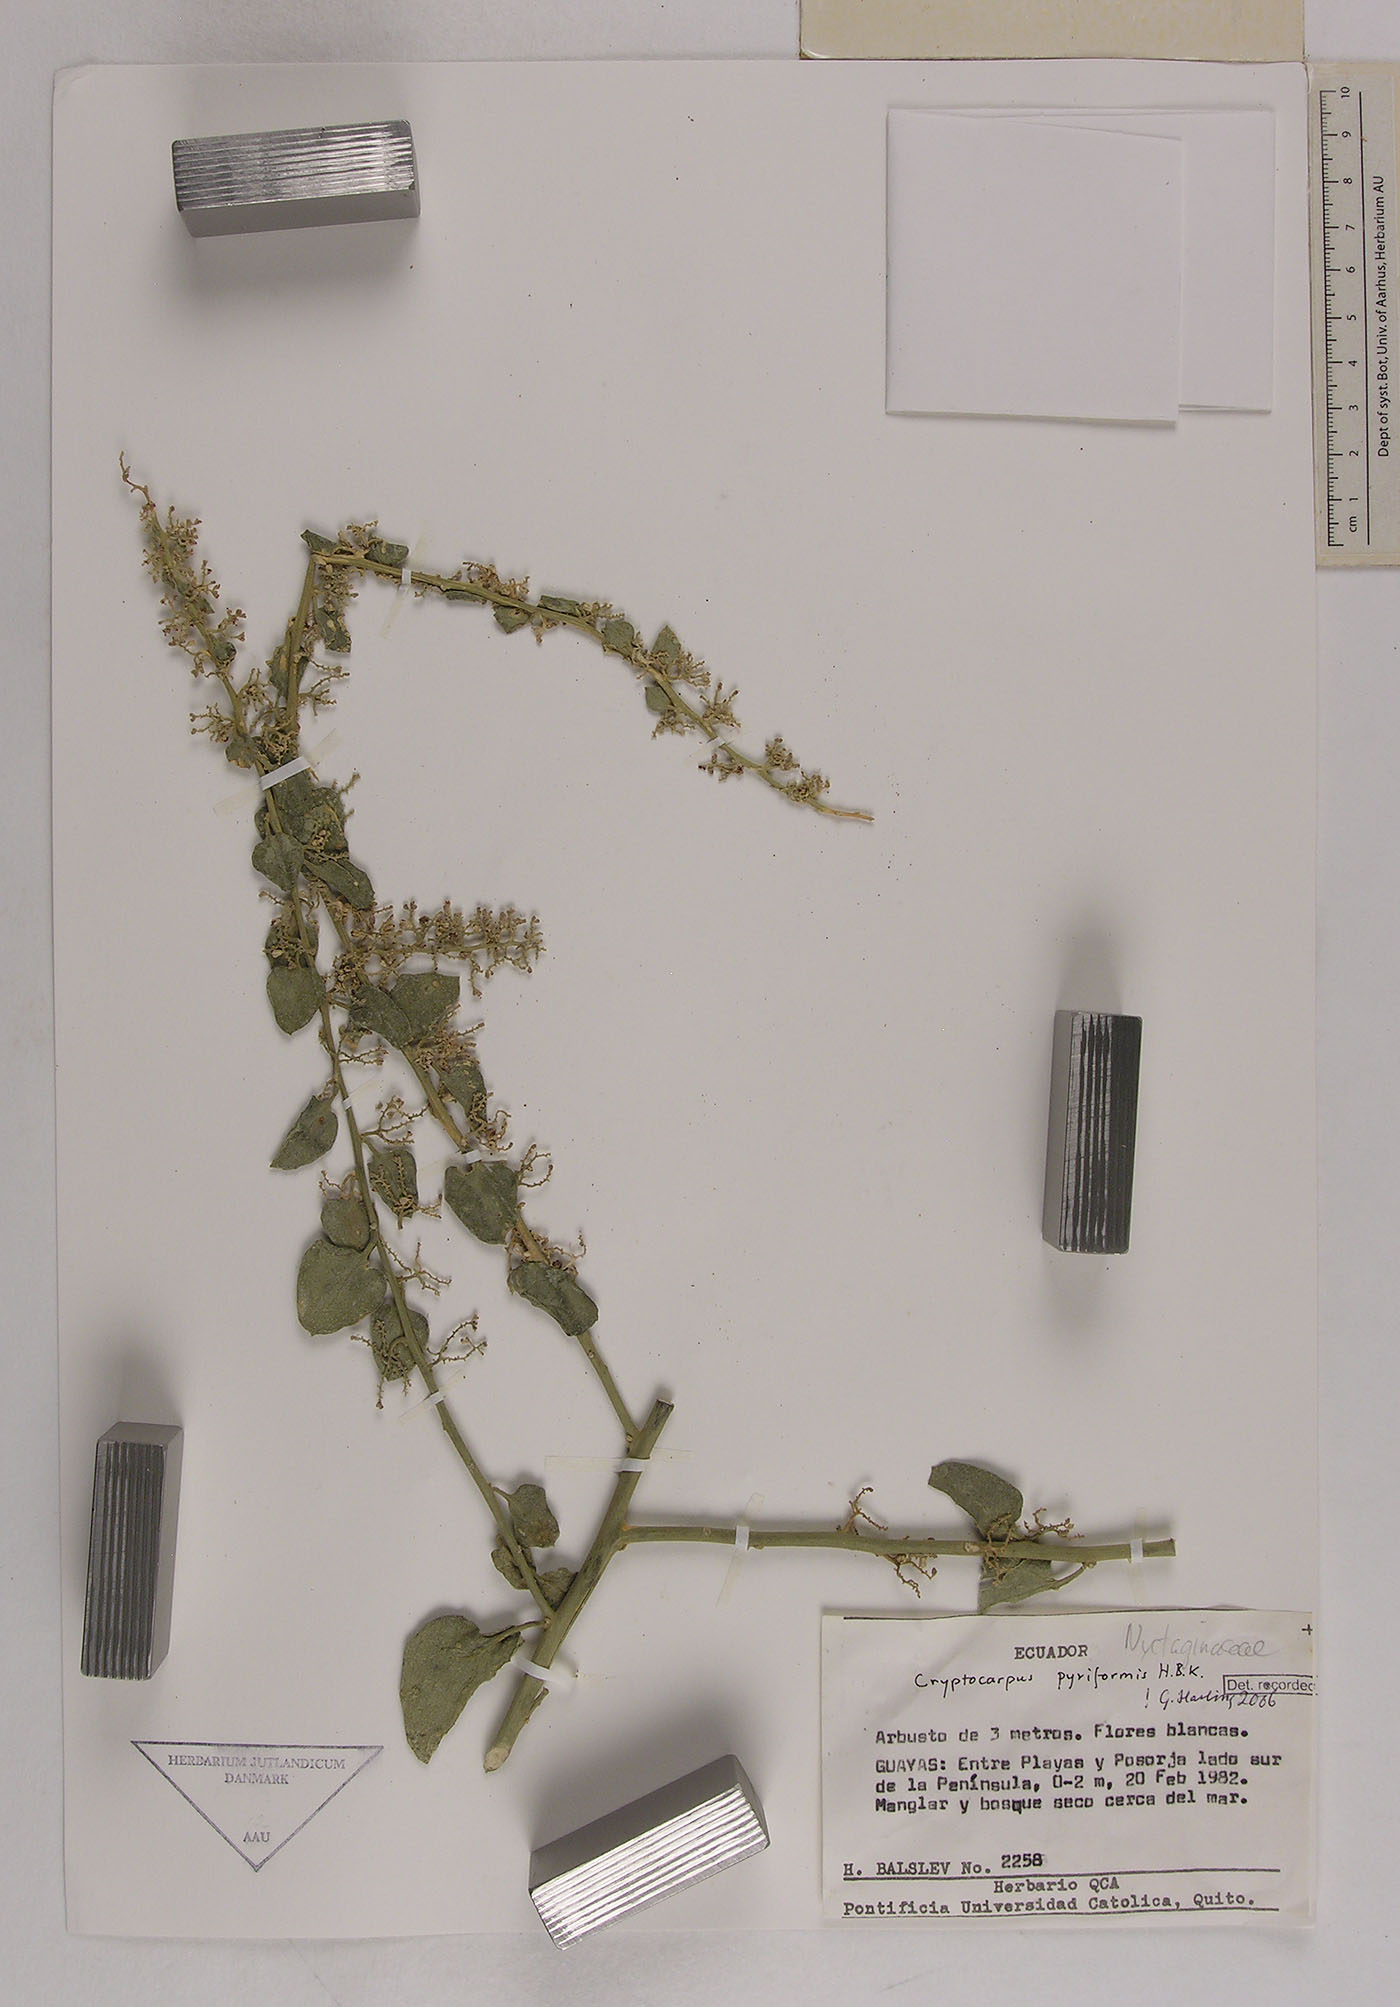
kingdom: Plantae
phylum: Tracheophyta
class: Magnoliopsida
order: Caryophyllales
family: Nyctaginaceae
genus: Cryptocarpus
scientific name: Cryptocarpus pyriformis
